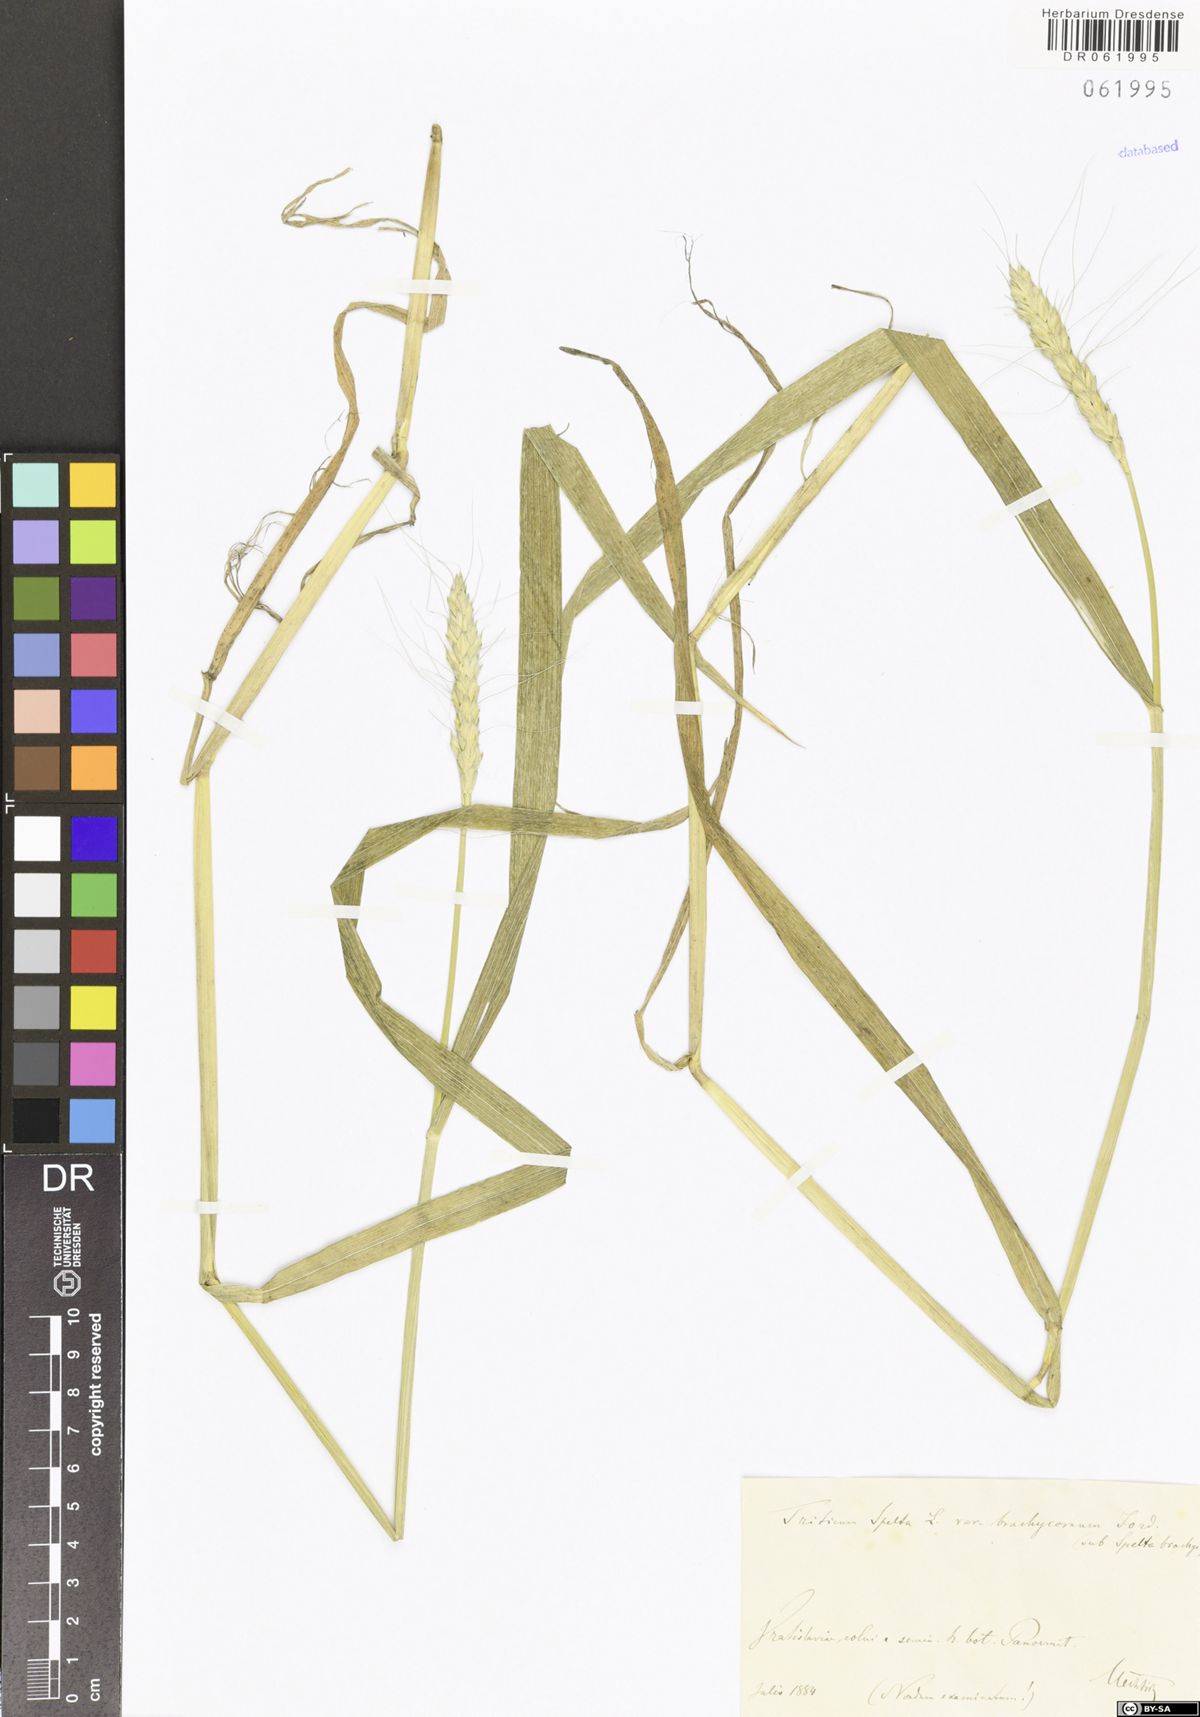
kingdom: Plantae
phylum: Tracheophyta
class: Liliopsida
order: Poales
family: Poaceae
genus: Triticum
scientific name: Triticum aestivum
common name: Common wheat
